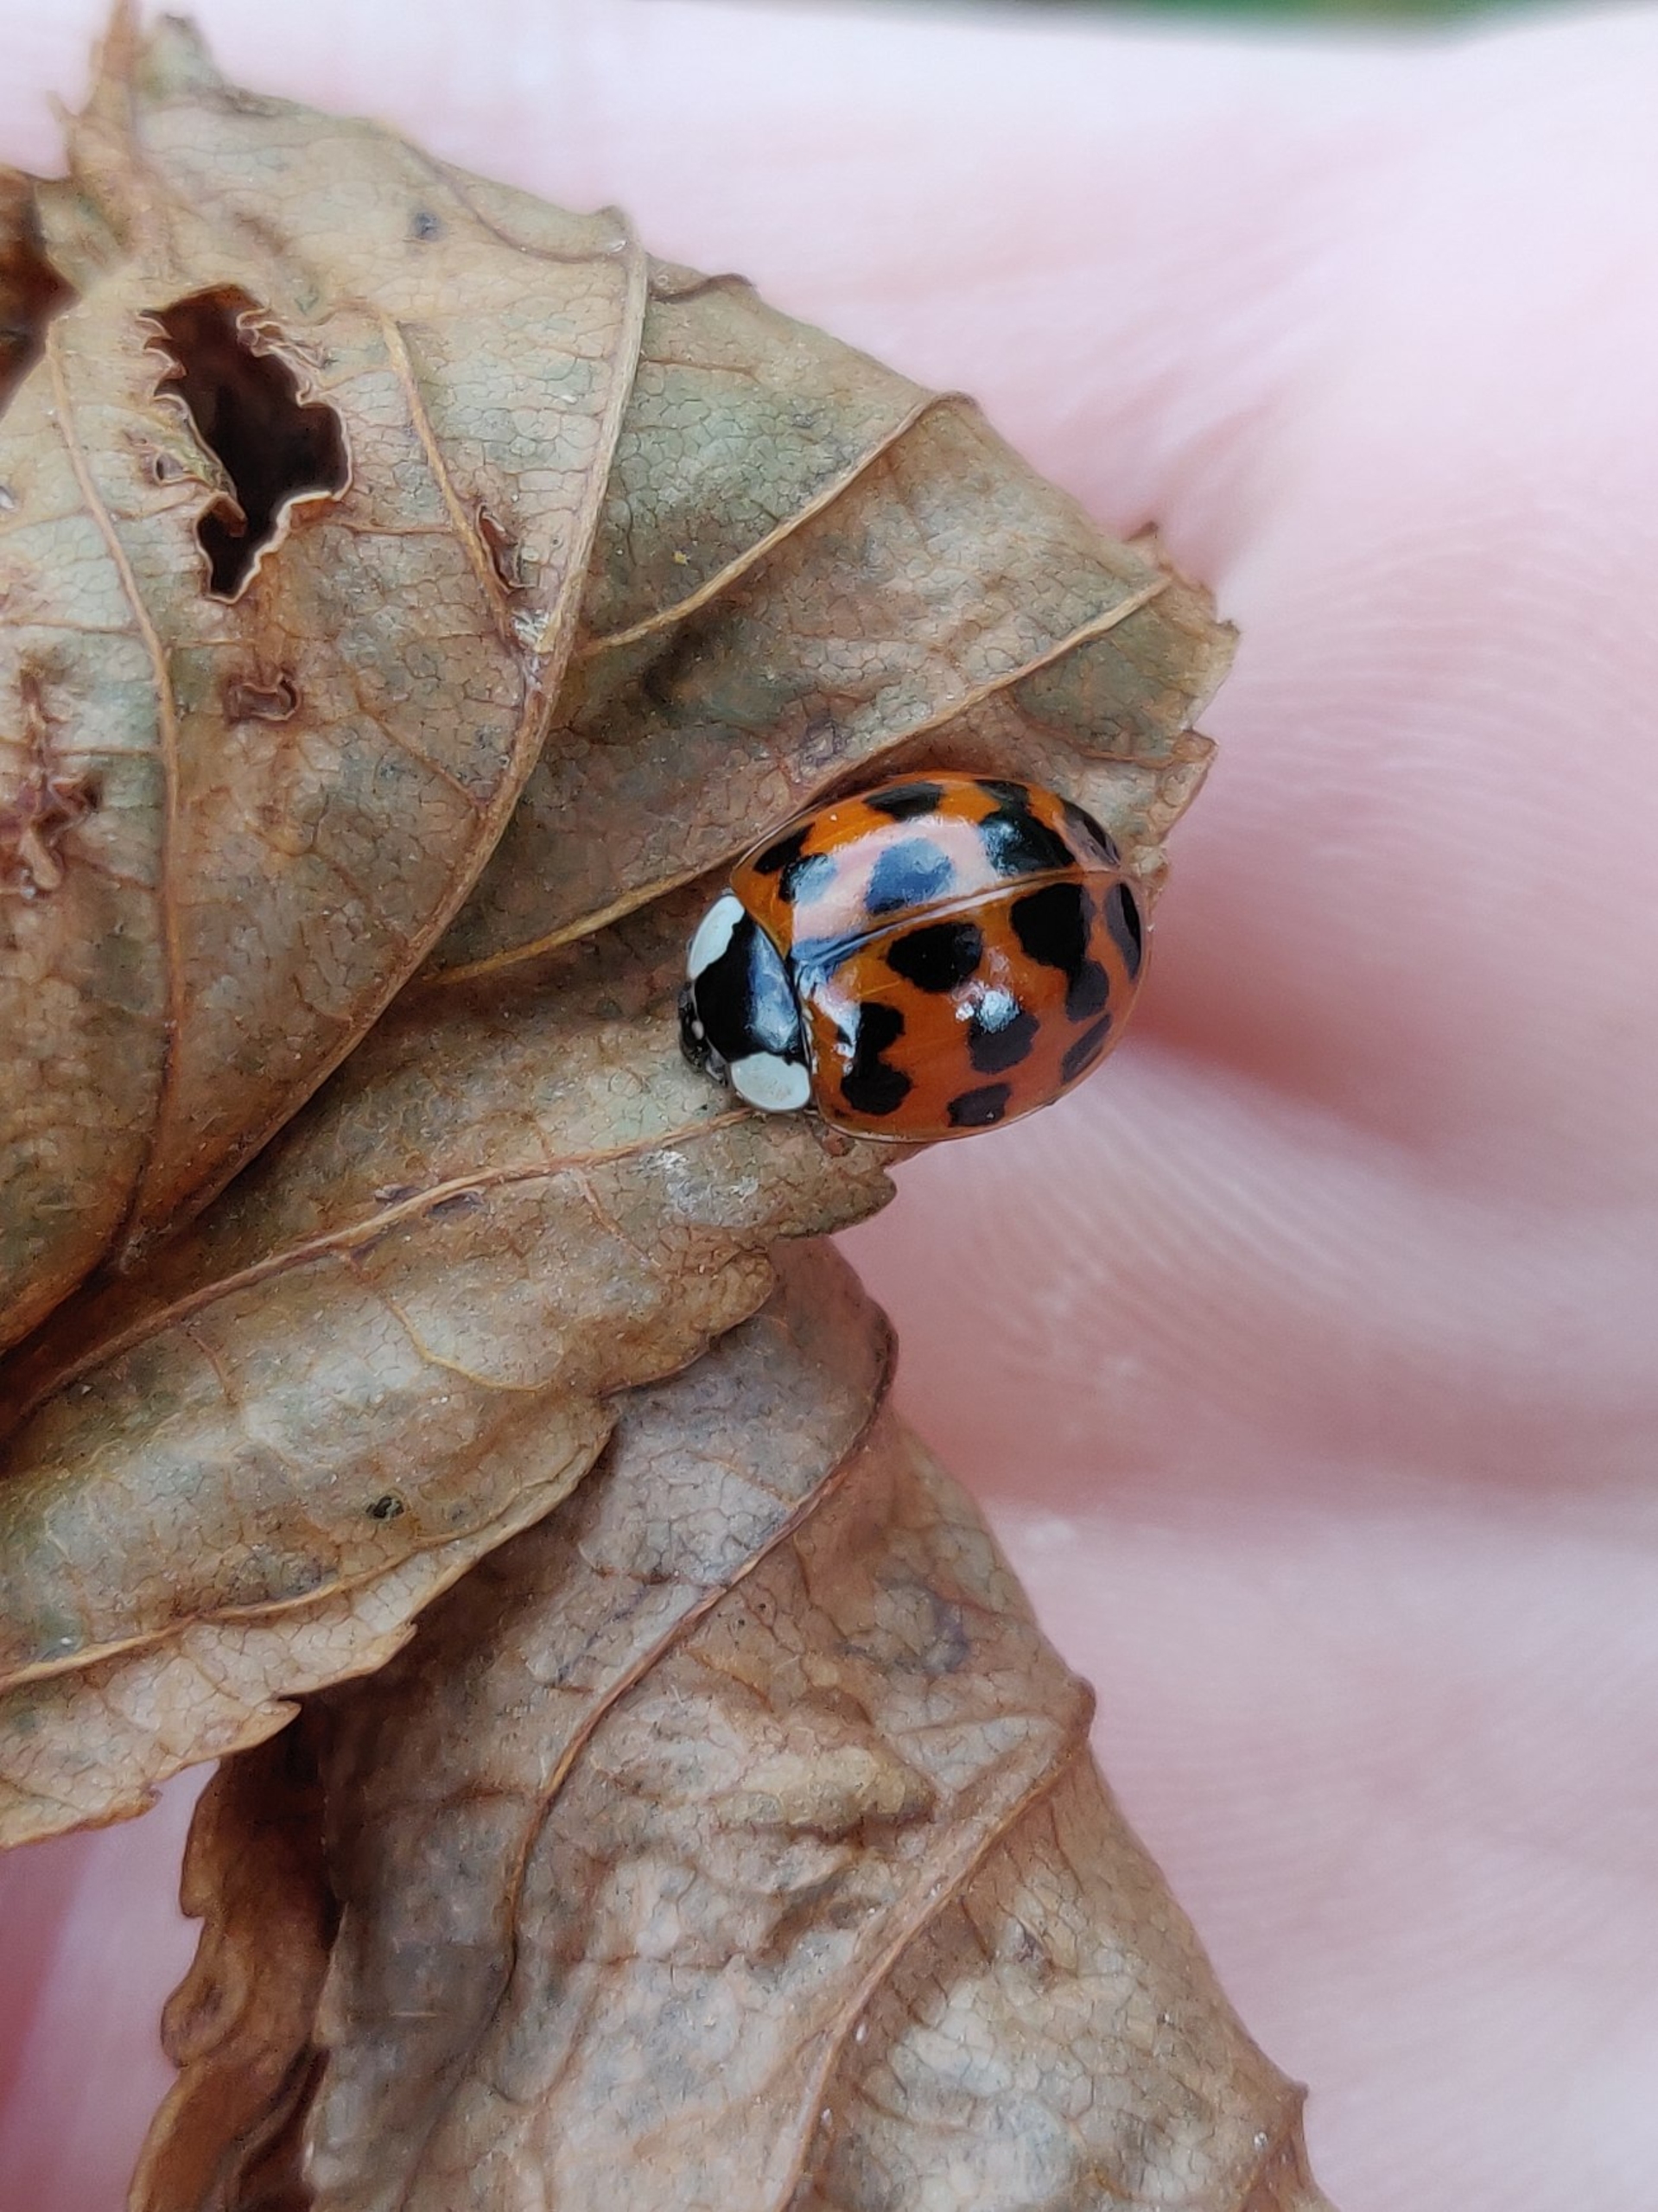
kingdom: Animalia
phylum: Arthropoda
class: Insecta
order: Coleoptera
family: Coccinellidae
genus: Harmonia
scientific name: Harmonia axyridis
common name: Harlekinmariehøne
